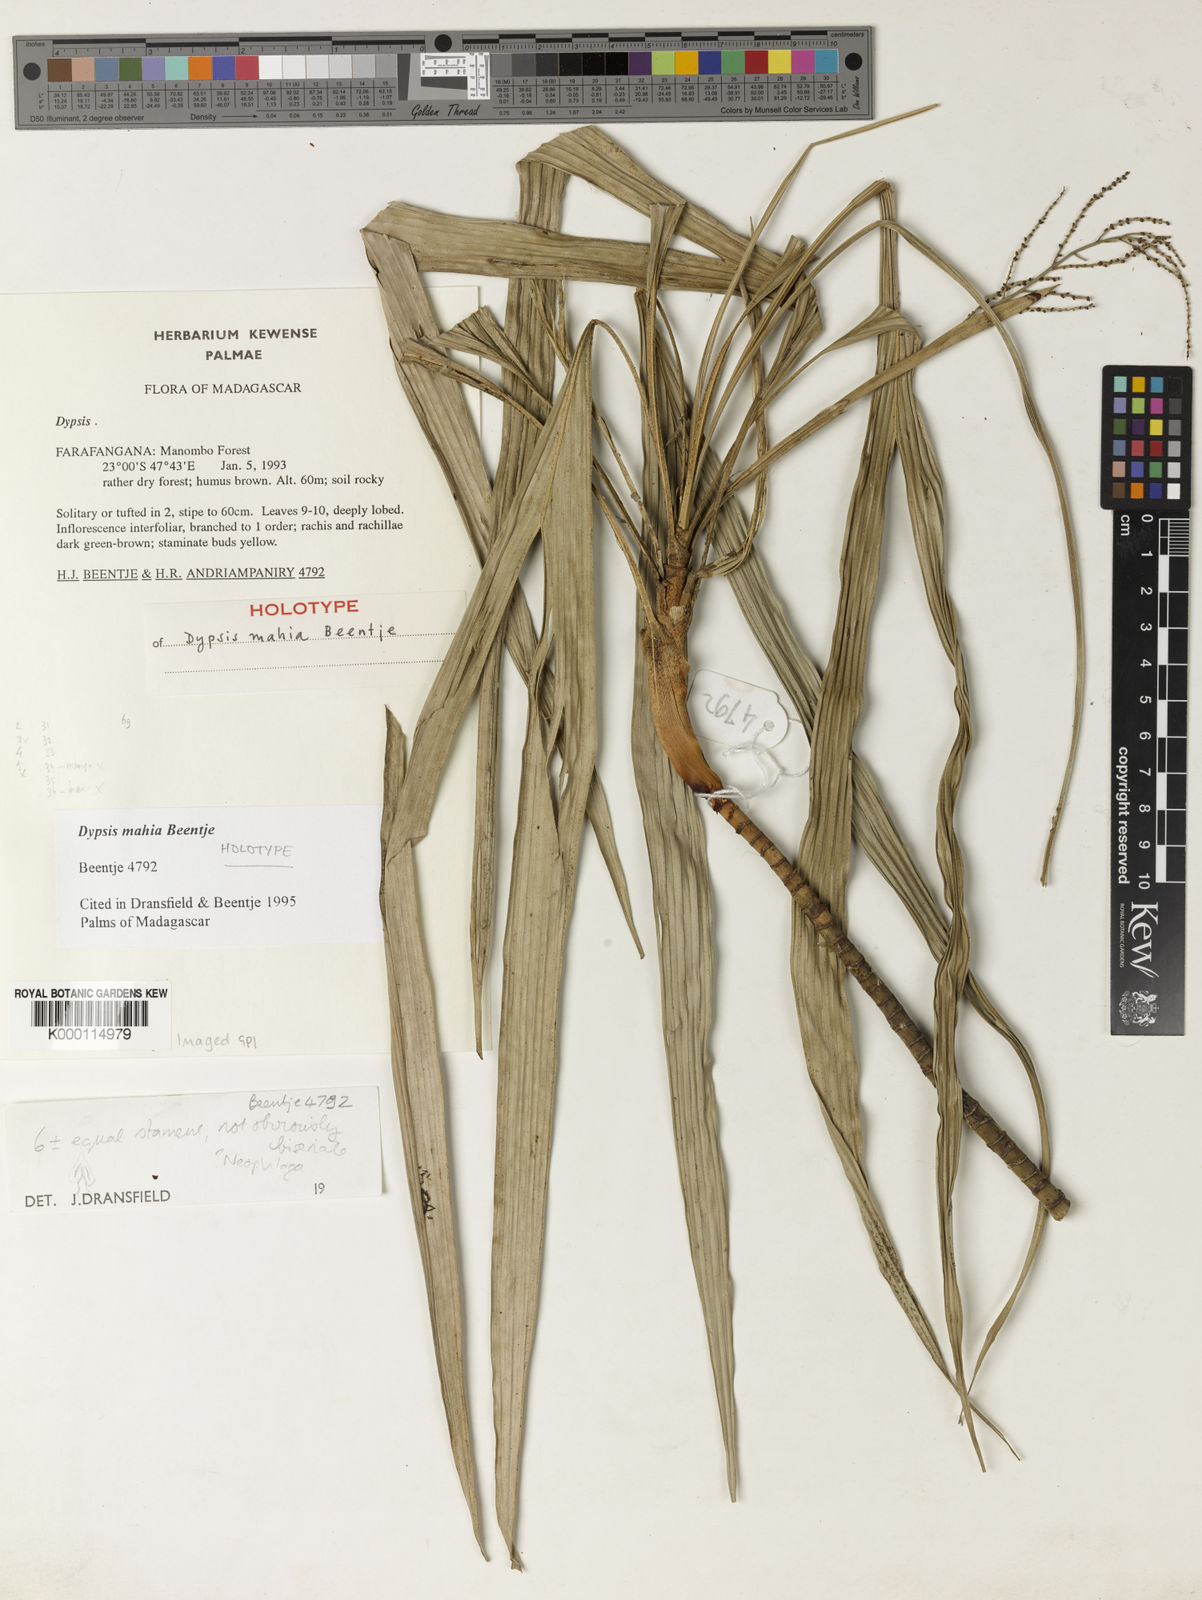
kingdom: Plantae
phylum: Tracheophyta
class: Liliopsida
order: Arecales
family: Arecaceae
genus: Dypsis
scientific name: Dypsis mahia
